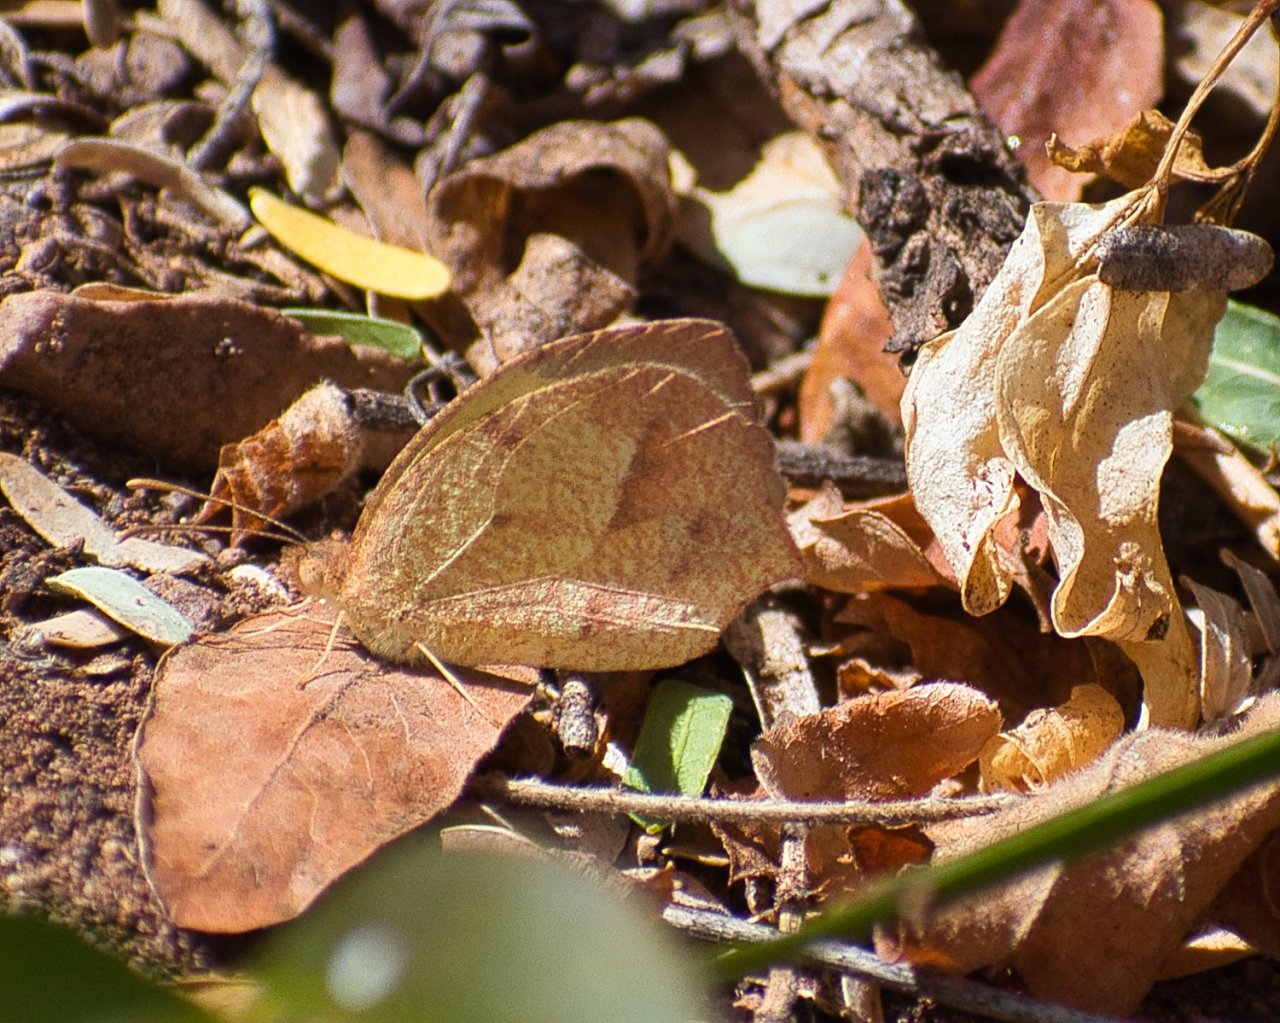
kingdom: Animalia
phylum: Arthropoda
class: Insecta
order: Lepidoptera
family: Pieridae
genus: Abaeis
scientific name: Abaeis nicippe
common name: Sleepy Orange
